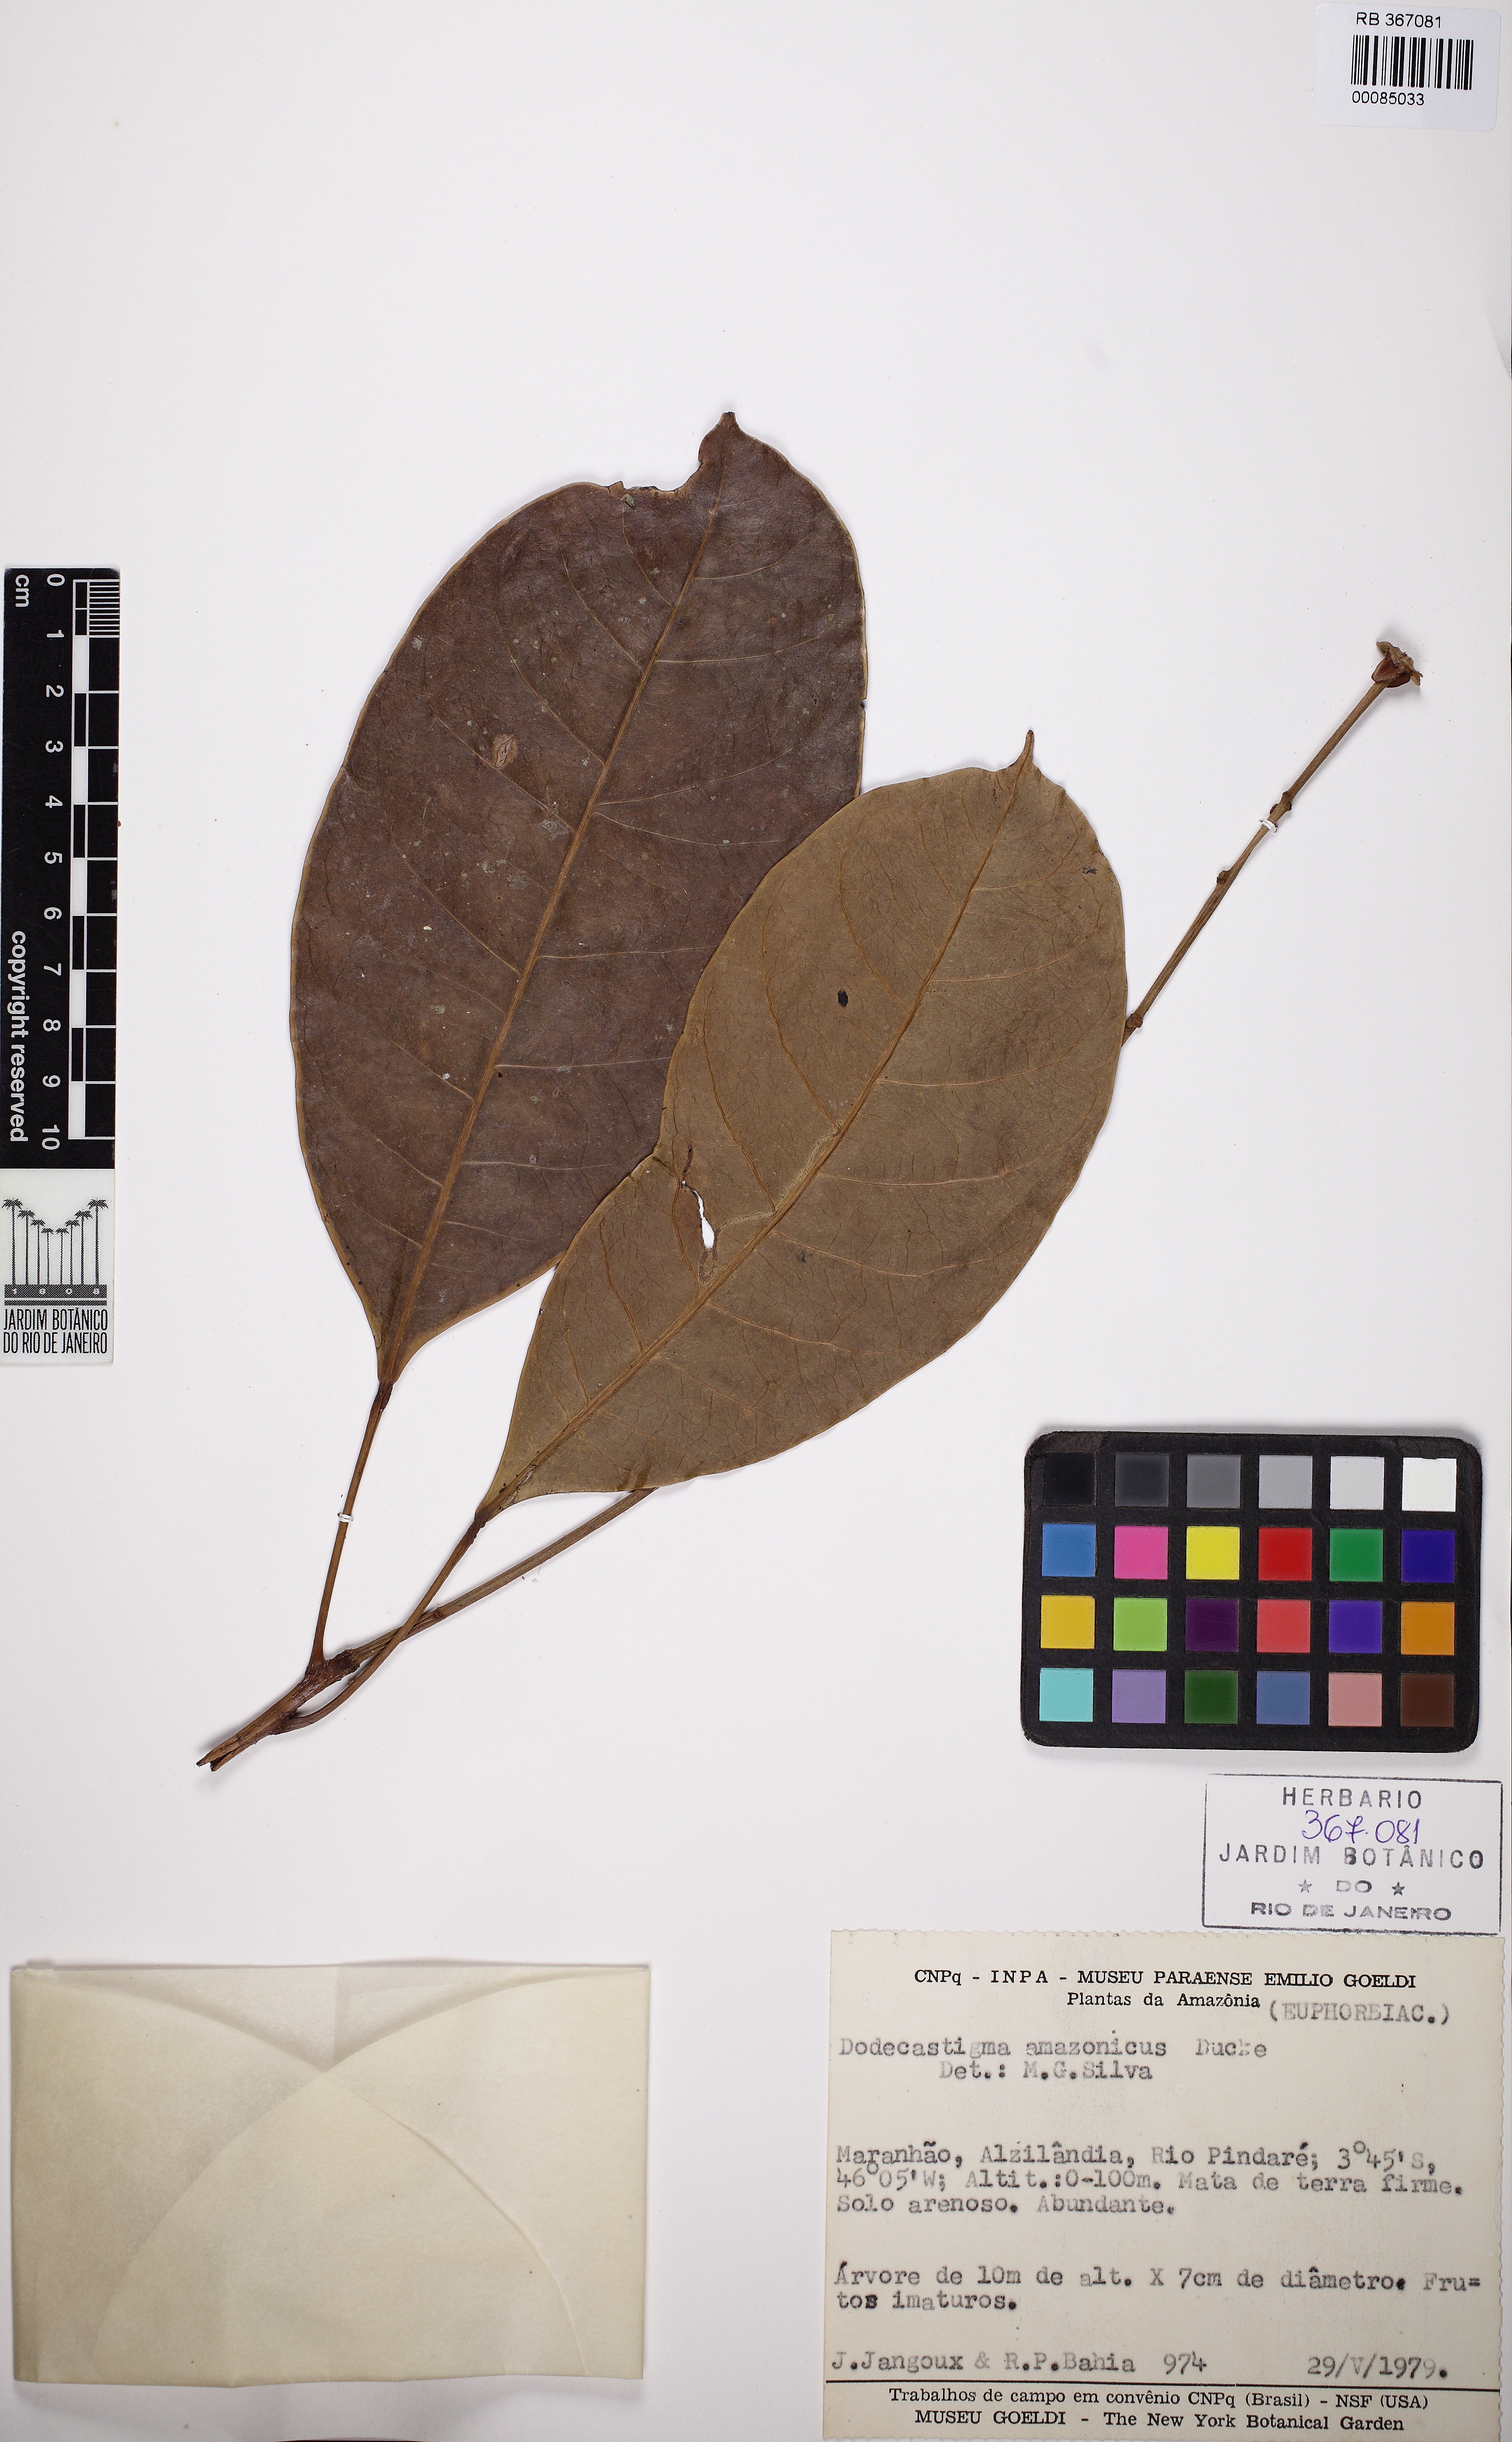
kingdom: Plantae
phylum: Tracheophyta
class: Magnoliopsida
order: Malpighiales
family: Euphorbiaceae
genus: Dodecastigma
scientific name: Dodecastigma amazonicum
